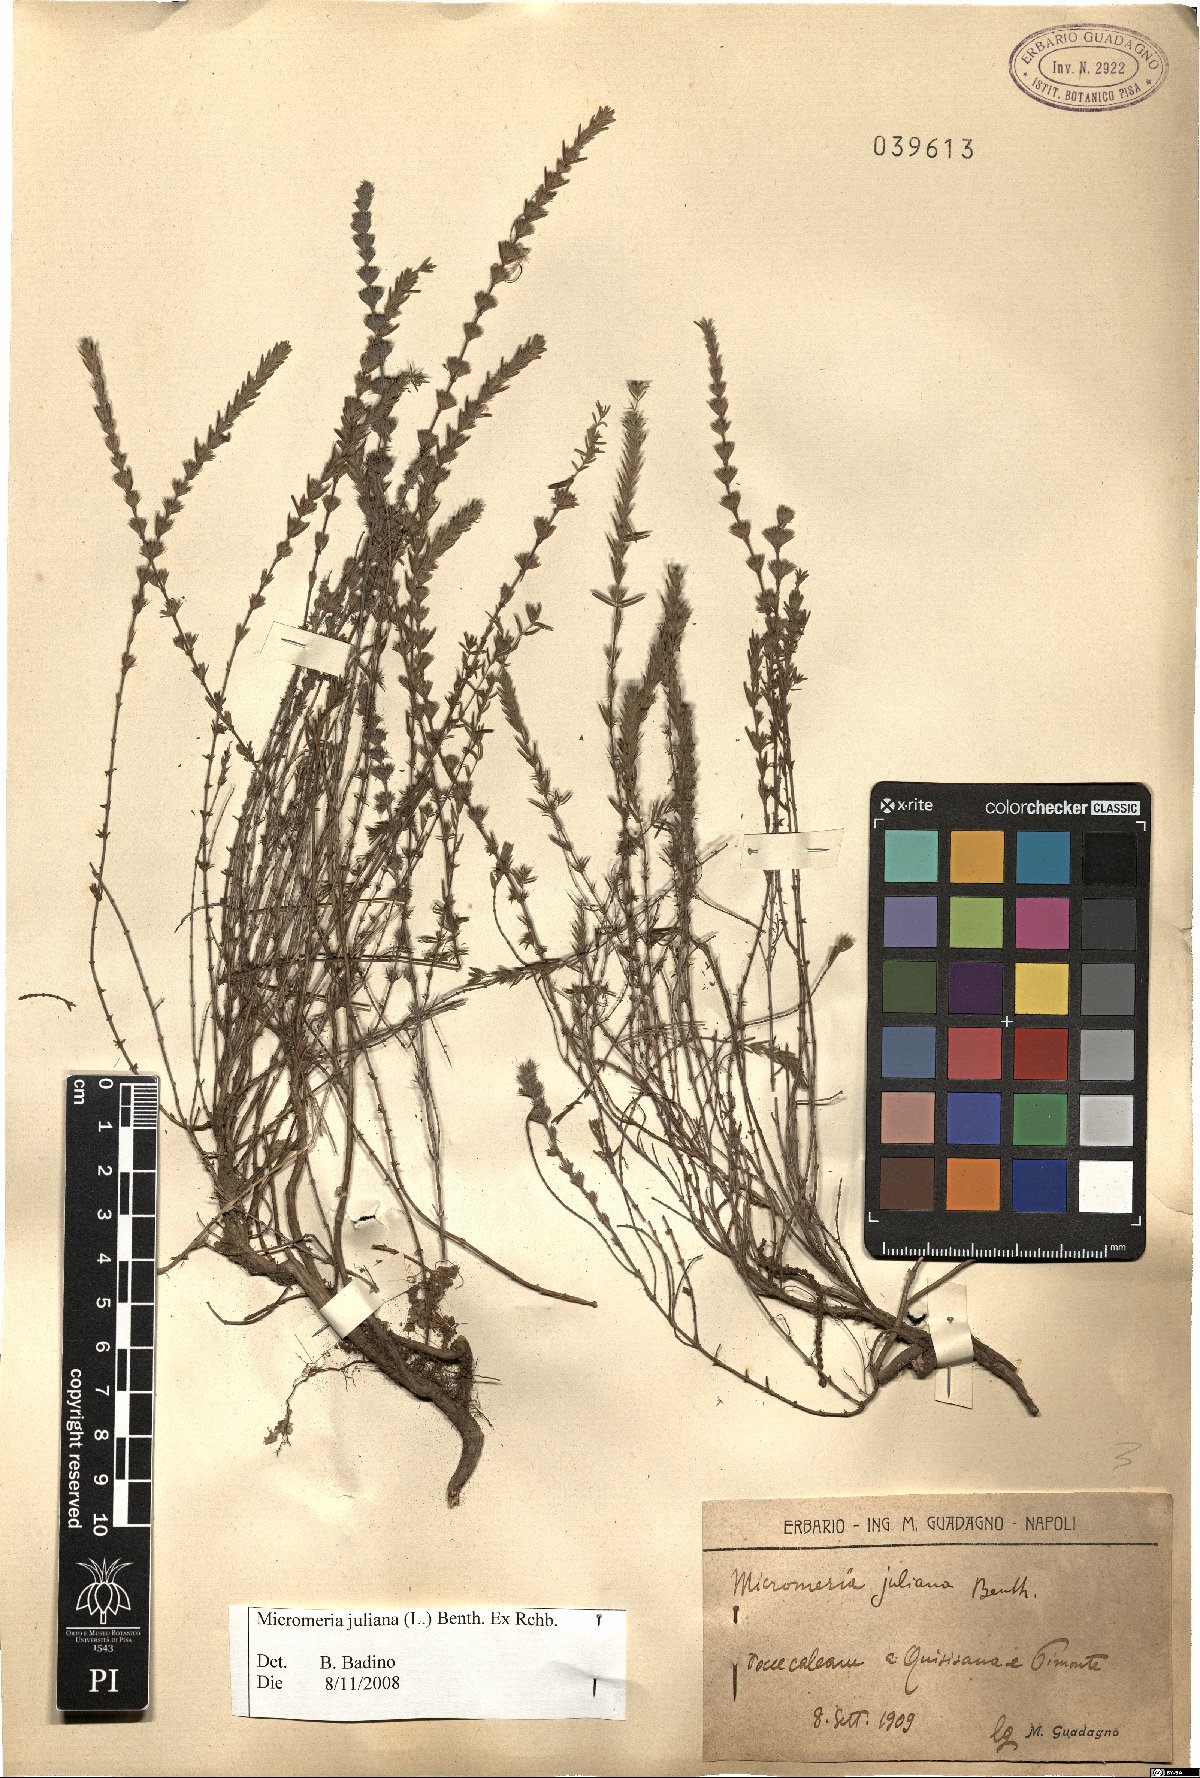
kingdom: Plantae
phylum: Tracheophyta
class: Magnoliopsida
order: Lamiales
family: Lamiaceae
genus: Micromeria
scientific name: Micromeria juliana
